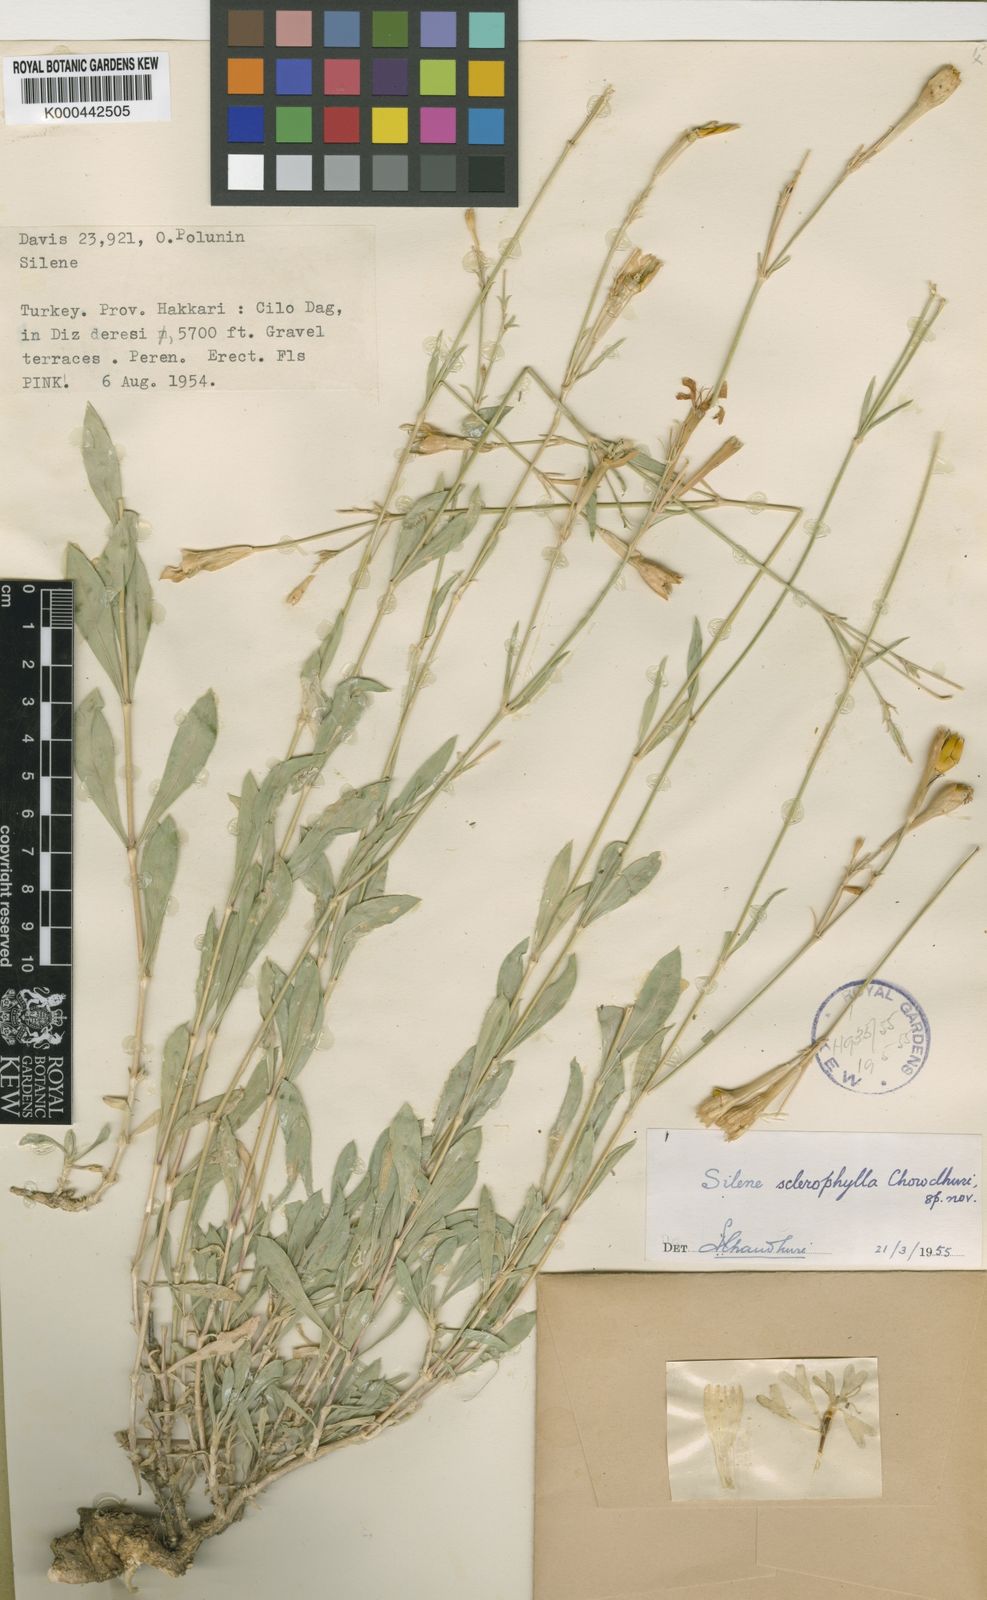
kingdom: Plantae
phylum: Tracheophyta
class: Magnoliopsida
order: Caryophyllales
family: Caryophyllaceae
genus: Silene
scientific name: Silene sclerophylla
